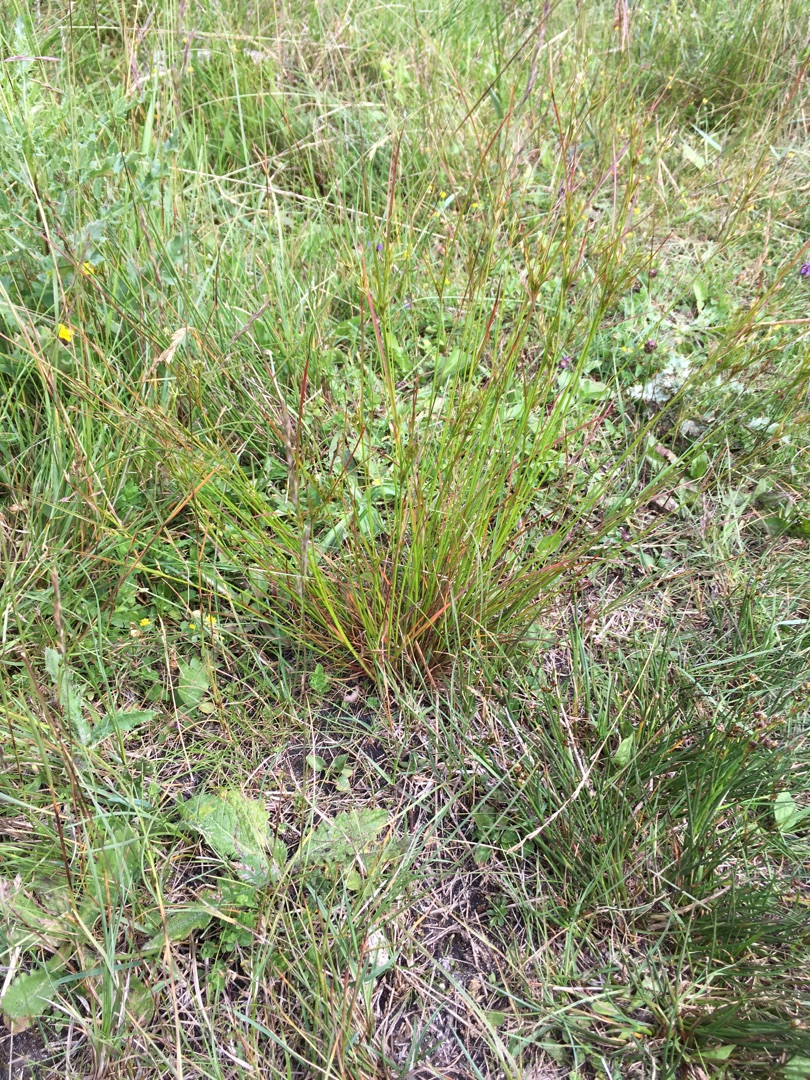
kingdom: Plantae
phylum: Tracheophyta
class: Liliopsida
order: Poales
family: Juncaceae
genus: Juncus
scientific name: Juncus tenuis
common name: Tue-siv
